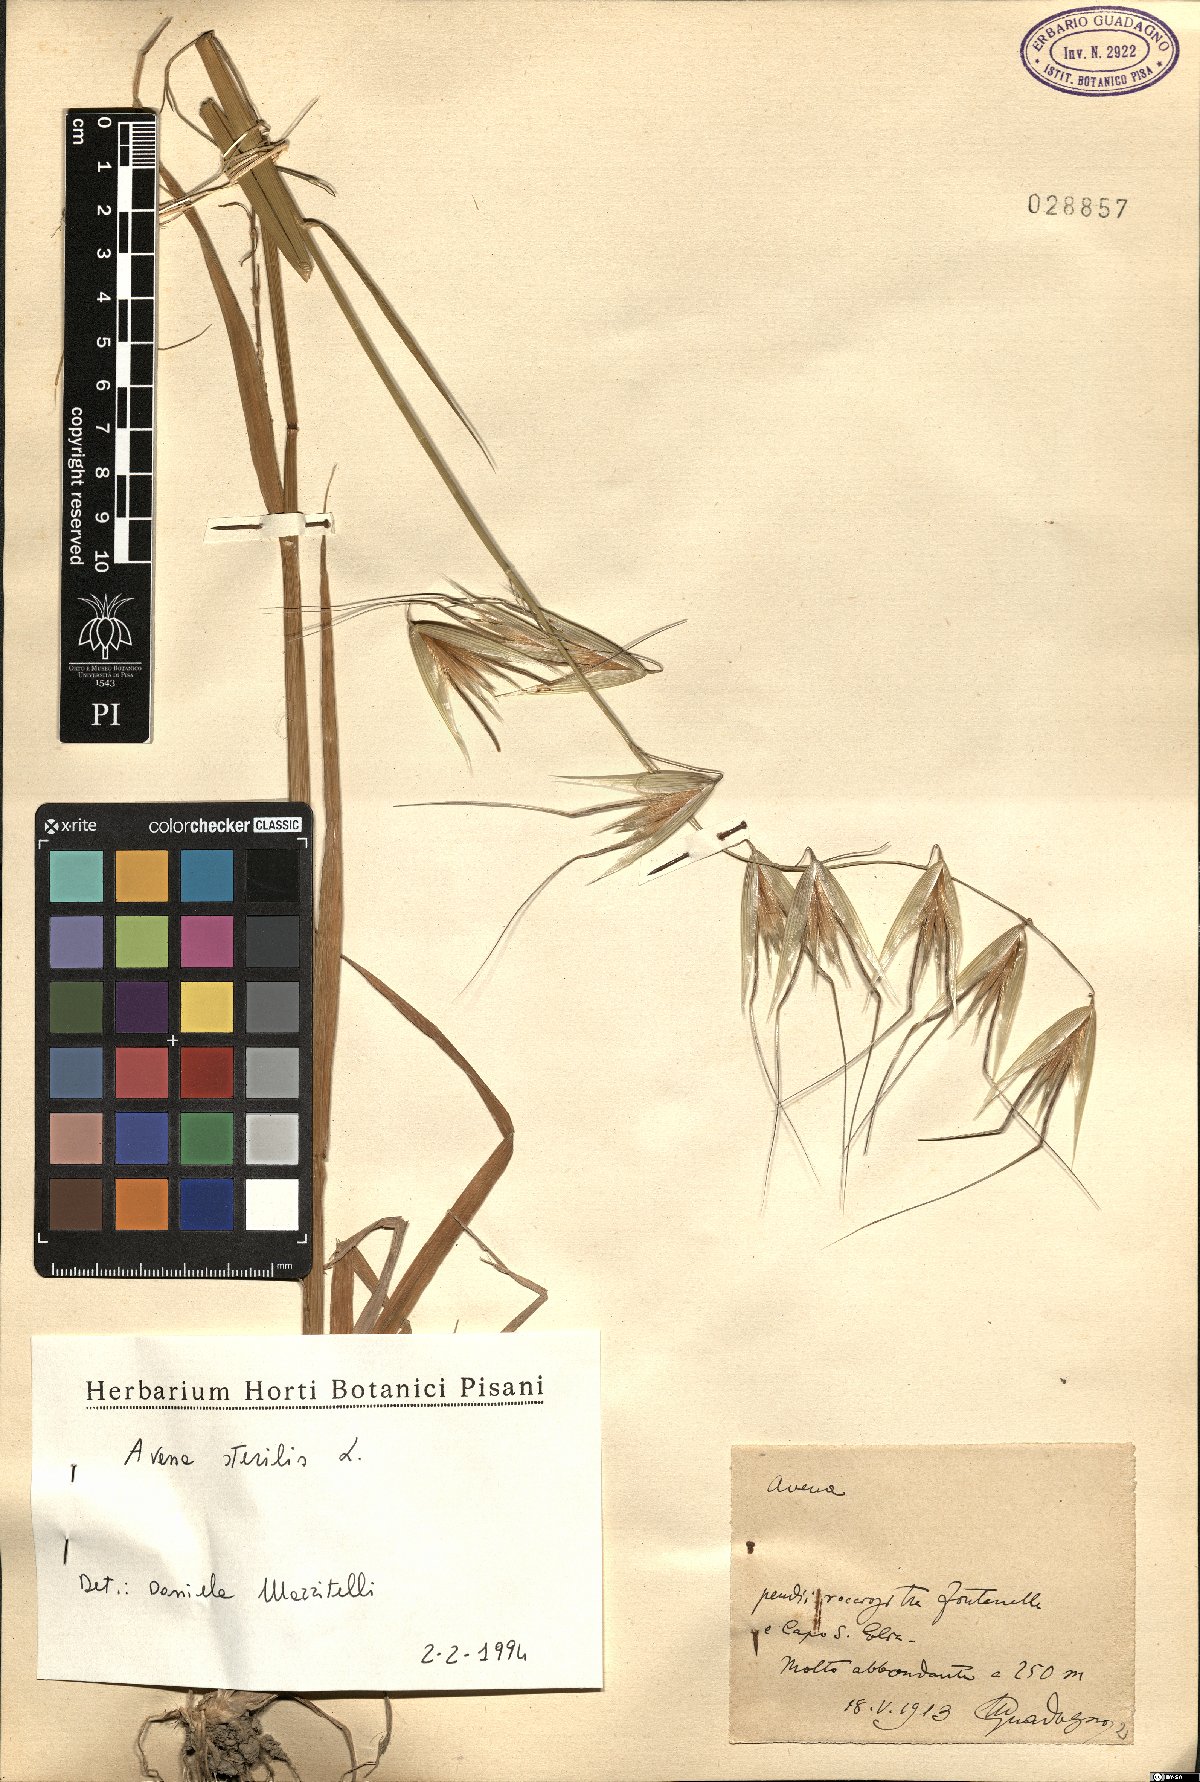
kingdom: Plantae
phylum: Tracheophyta
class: Liliopsida
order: Poales
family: Poaceae
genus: Avena
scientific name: Avena sterilis
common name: Animated oat
